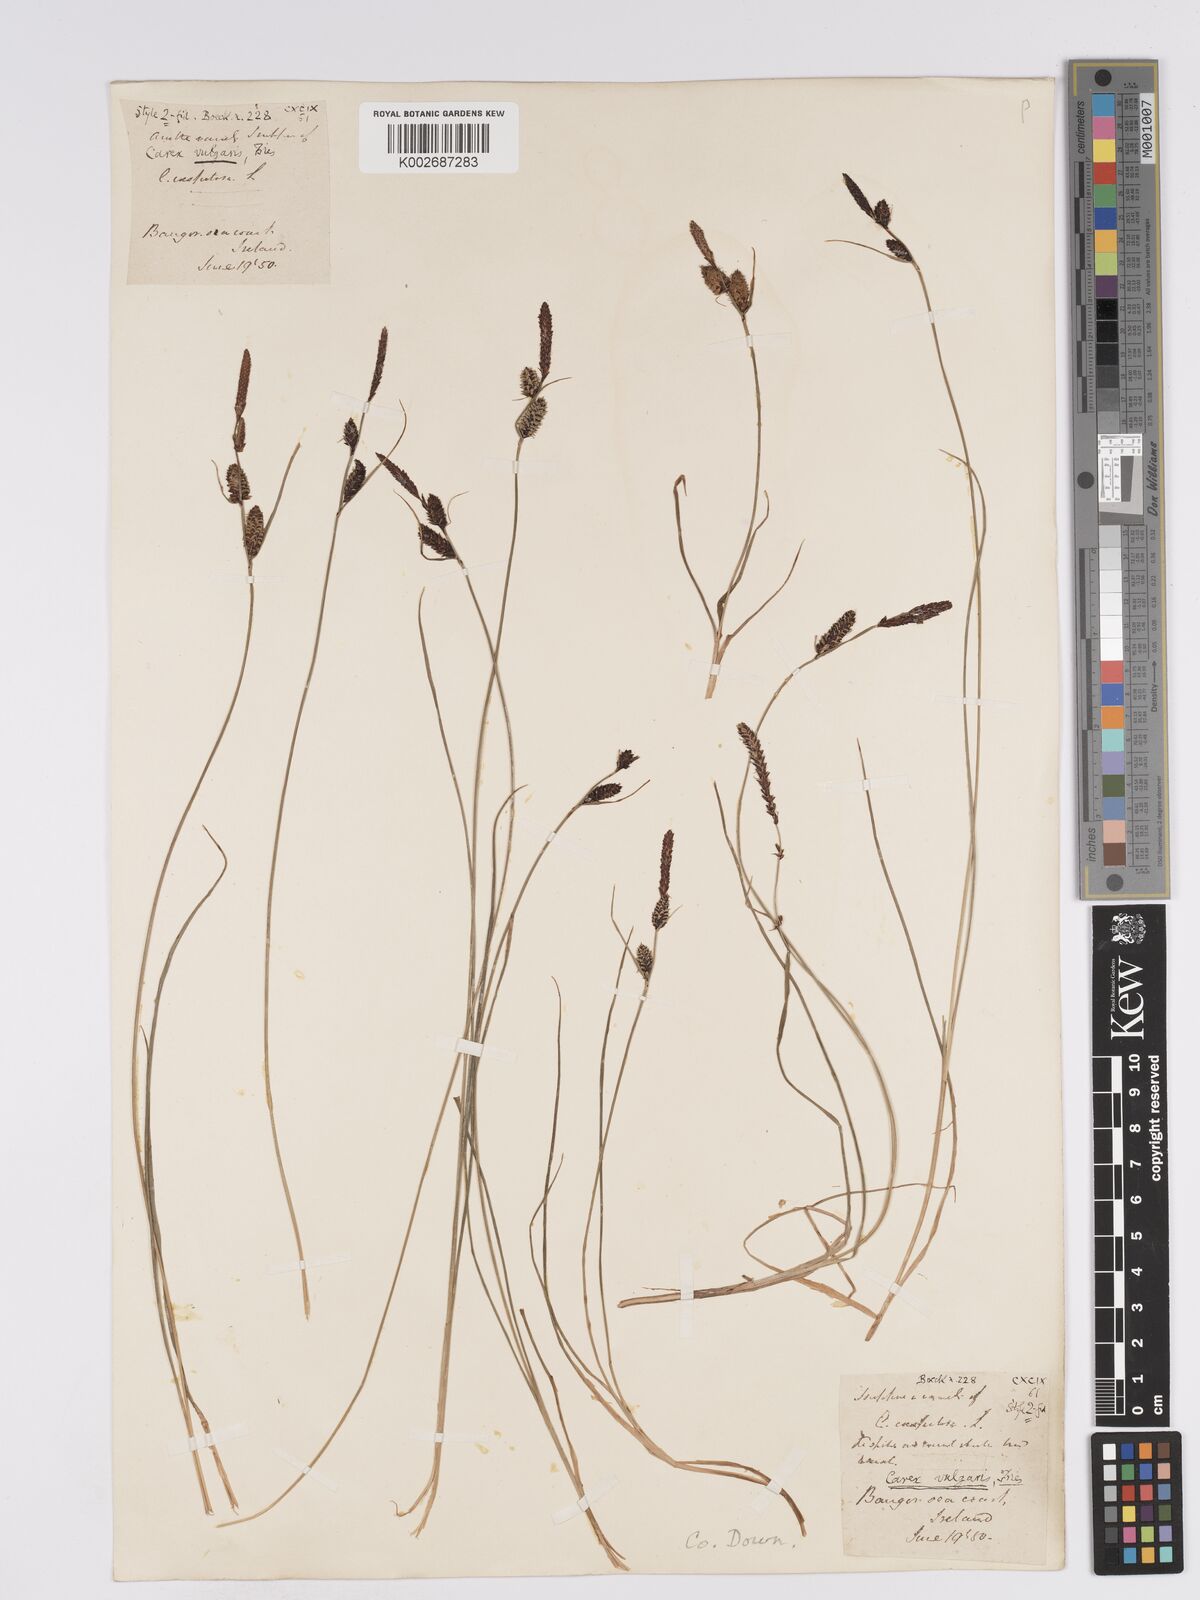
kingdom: Plantae
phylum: Tracheophyta
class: Liliopsida
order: Poales
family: Cyperaceae
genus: Carex
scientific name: Carex nigra
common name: Common sedge
